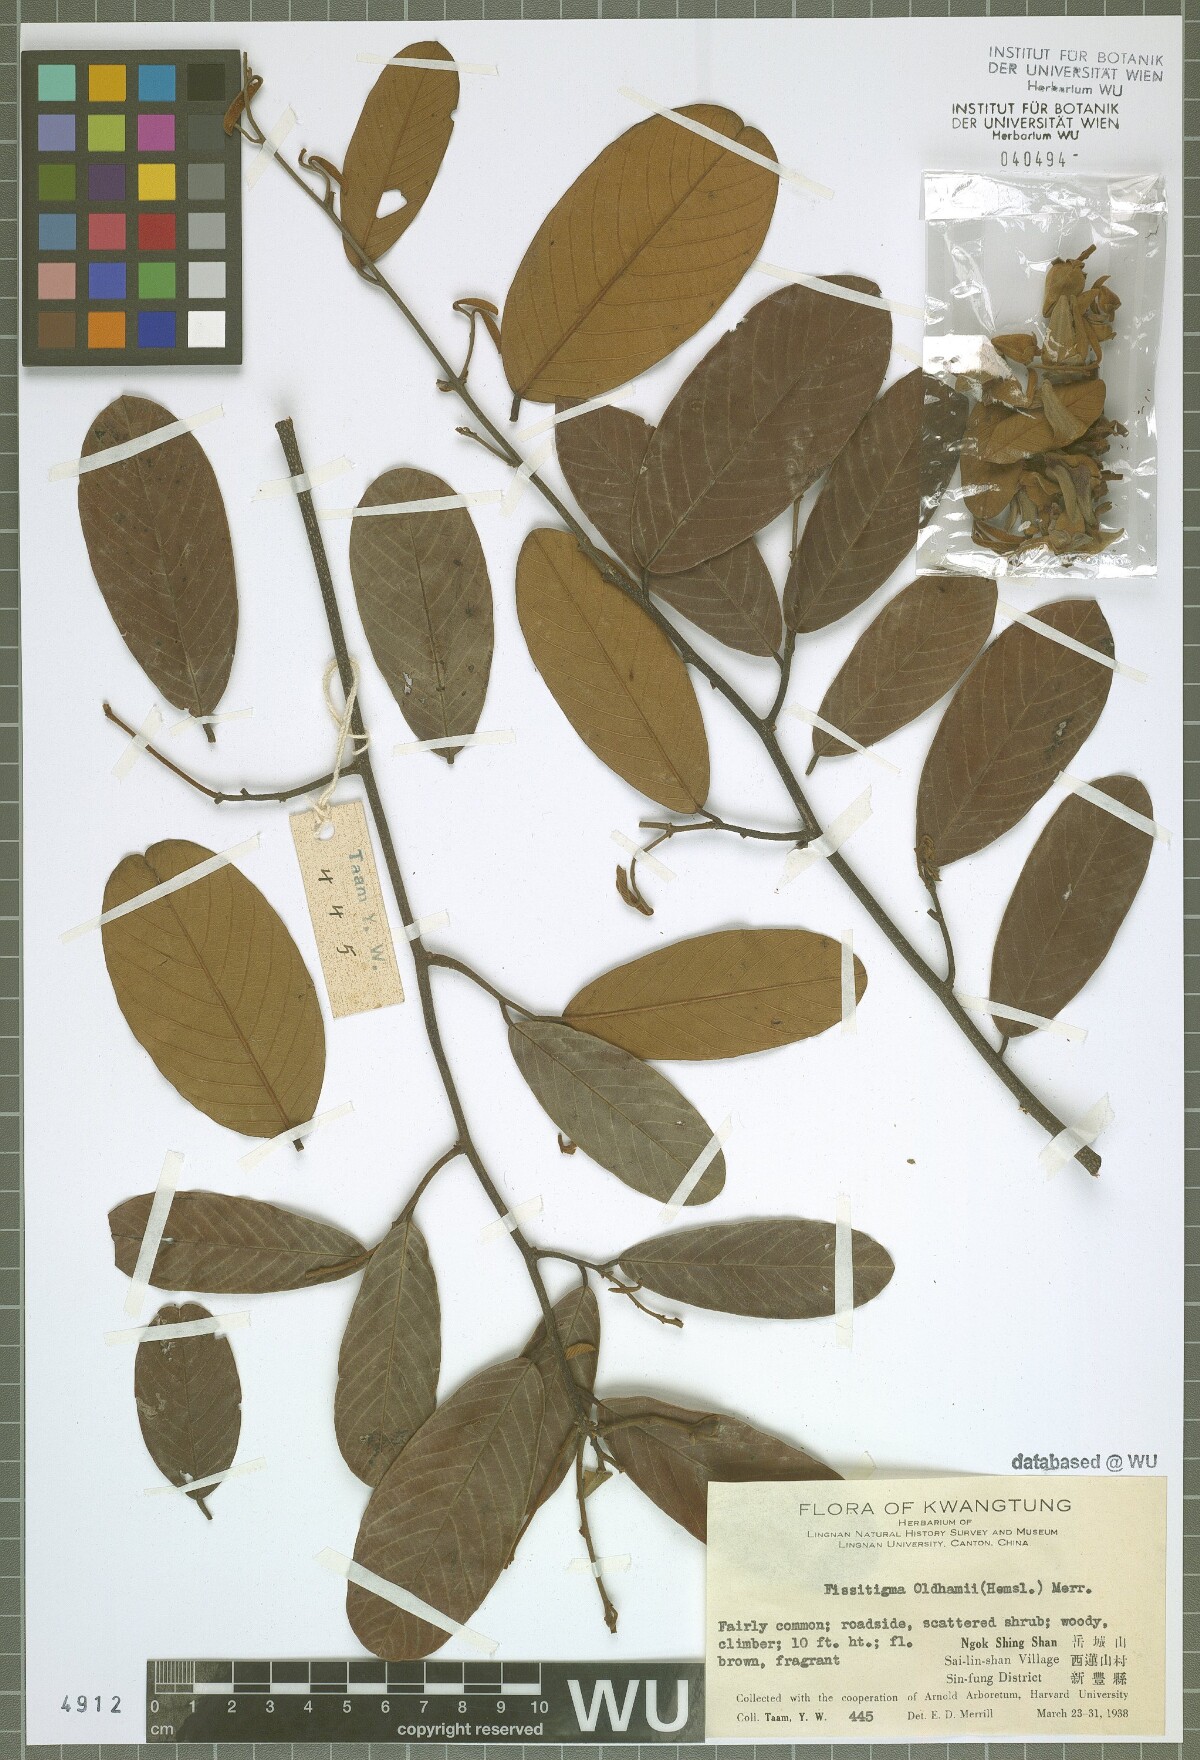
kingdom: Plantae
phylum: Tracheophyta
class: Magnoliopsida
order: Magnoliales
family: Annonaceae
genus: Fissistigma
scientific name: Fissistigma oldhamii
